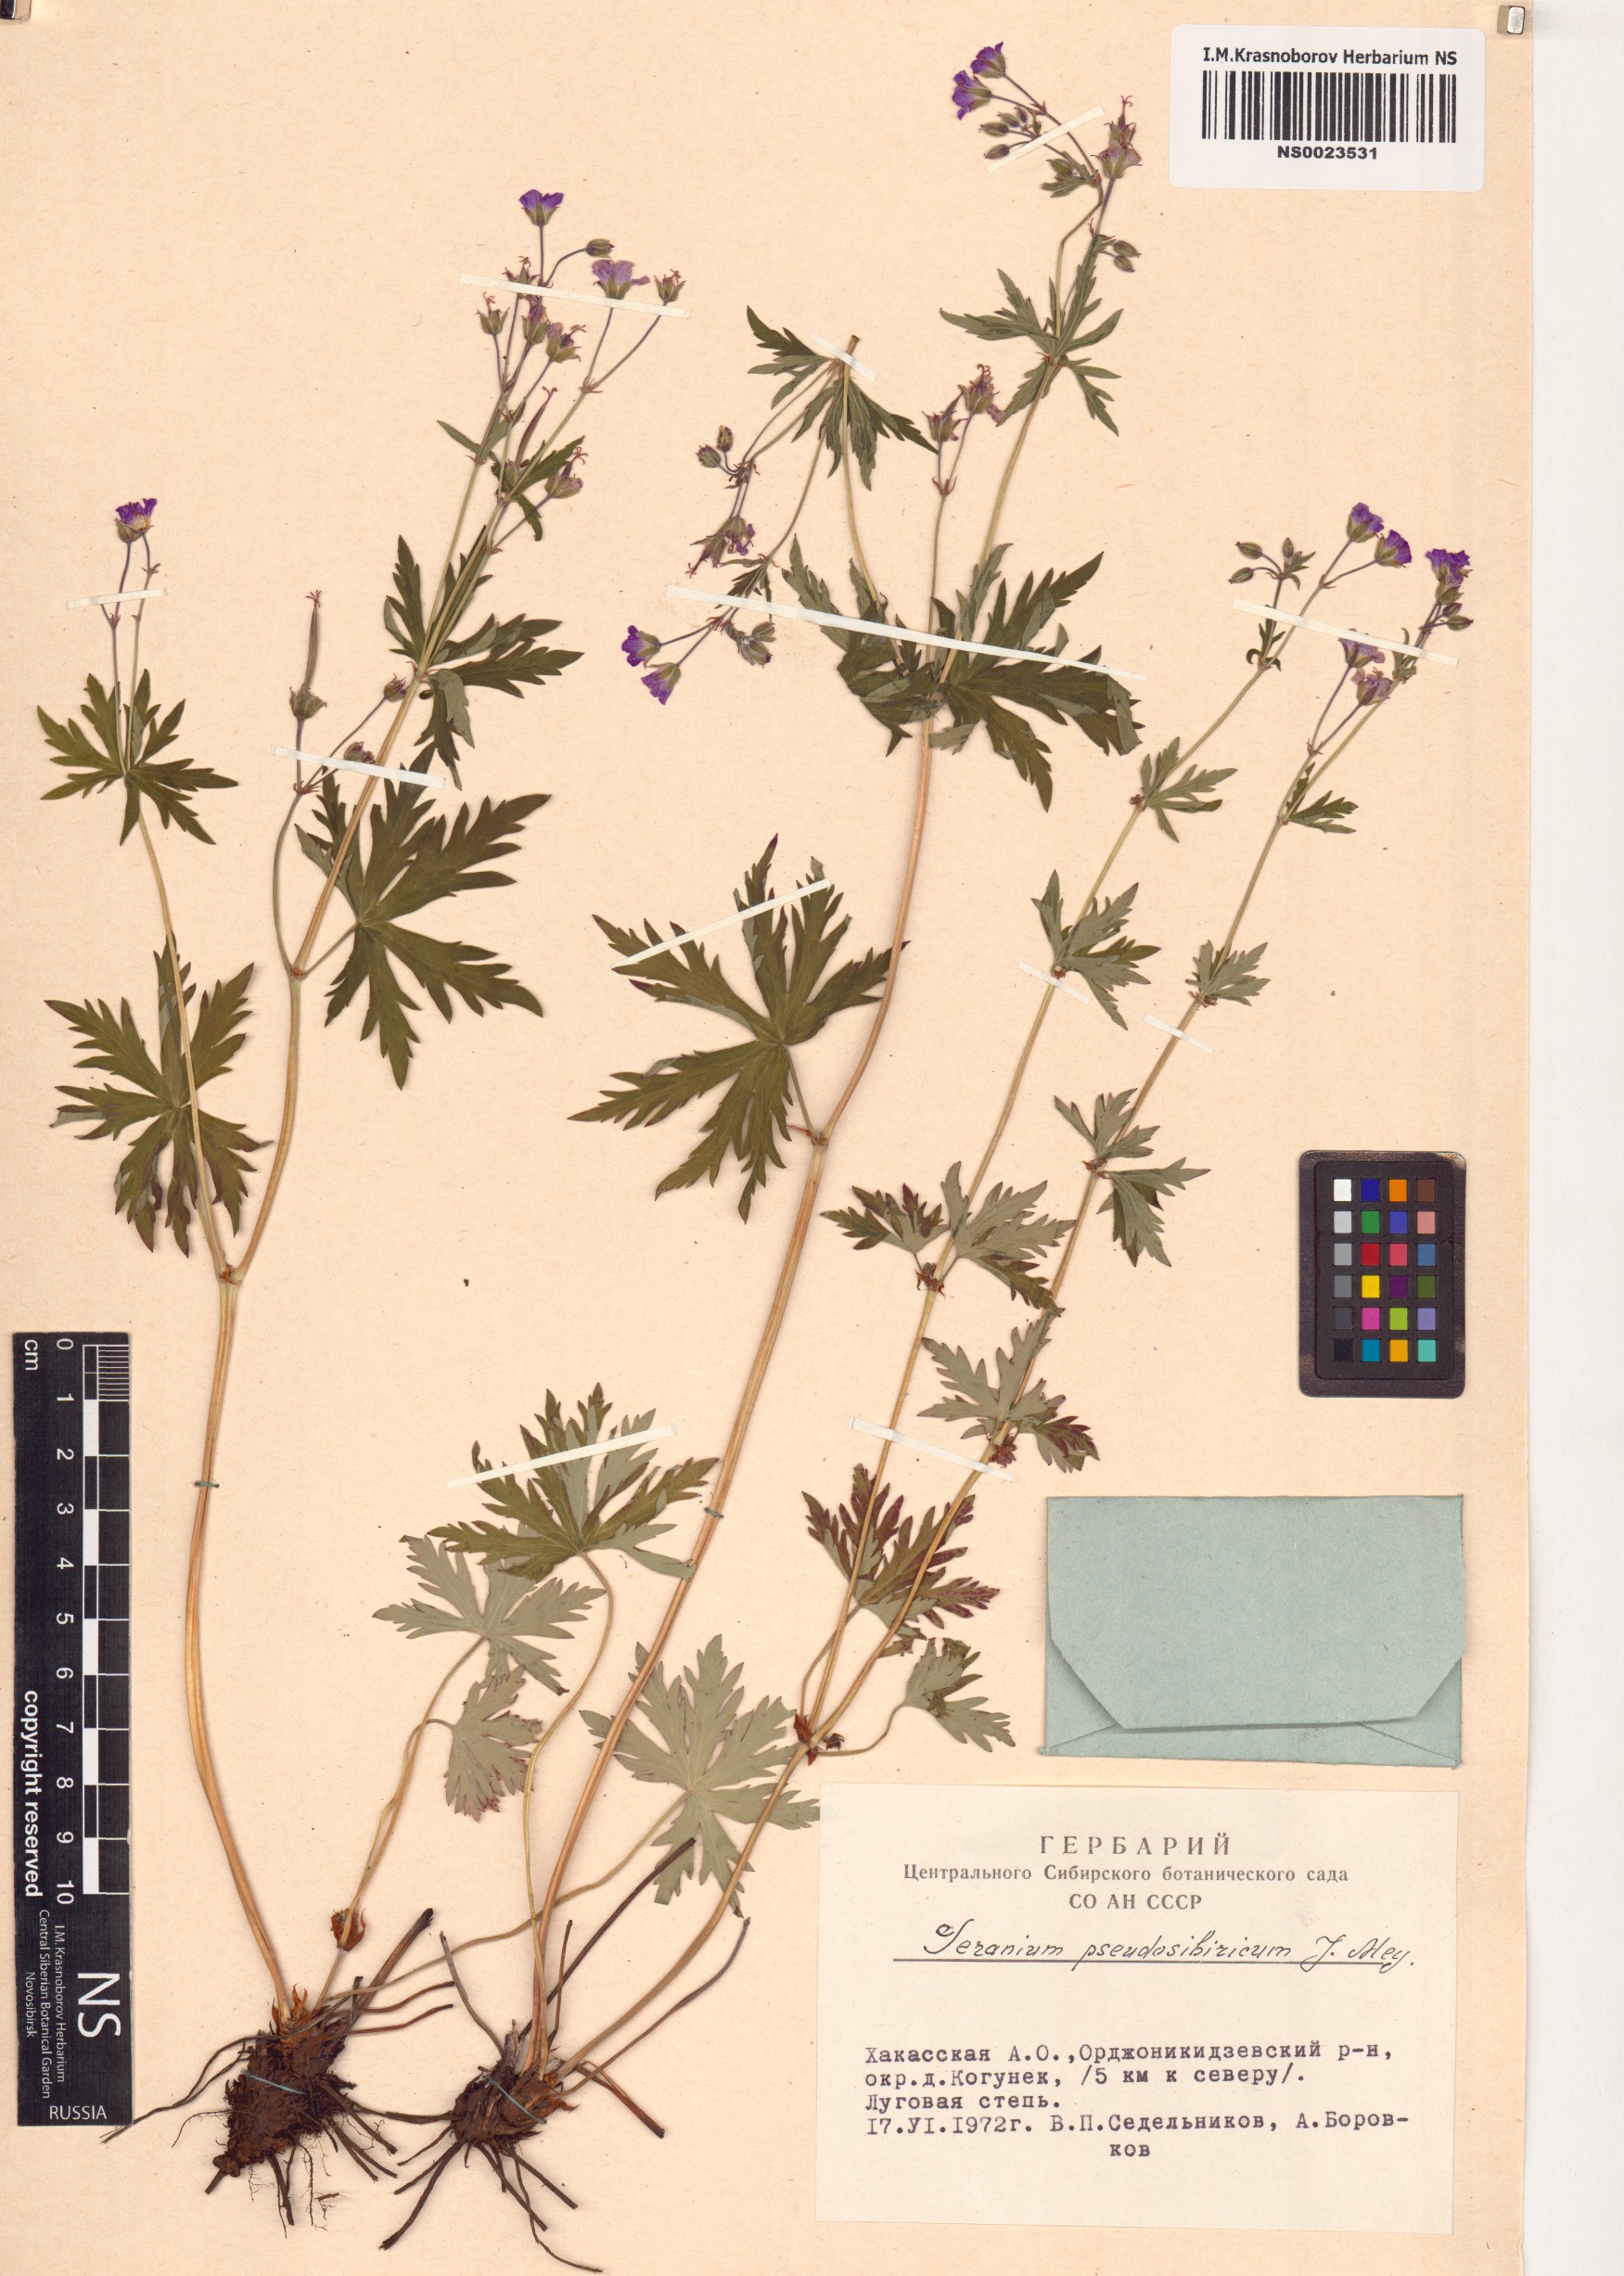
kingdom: Plantae
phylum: Tracheophyta
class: Magnoliopsida
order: Geraniales
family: Geraniaceae
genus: Geranium
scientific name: Geranium pseudosibiricum
